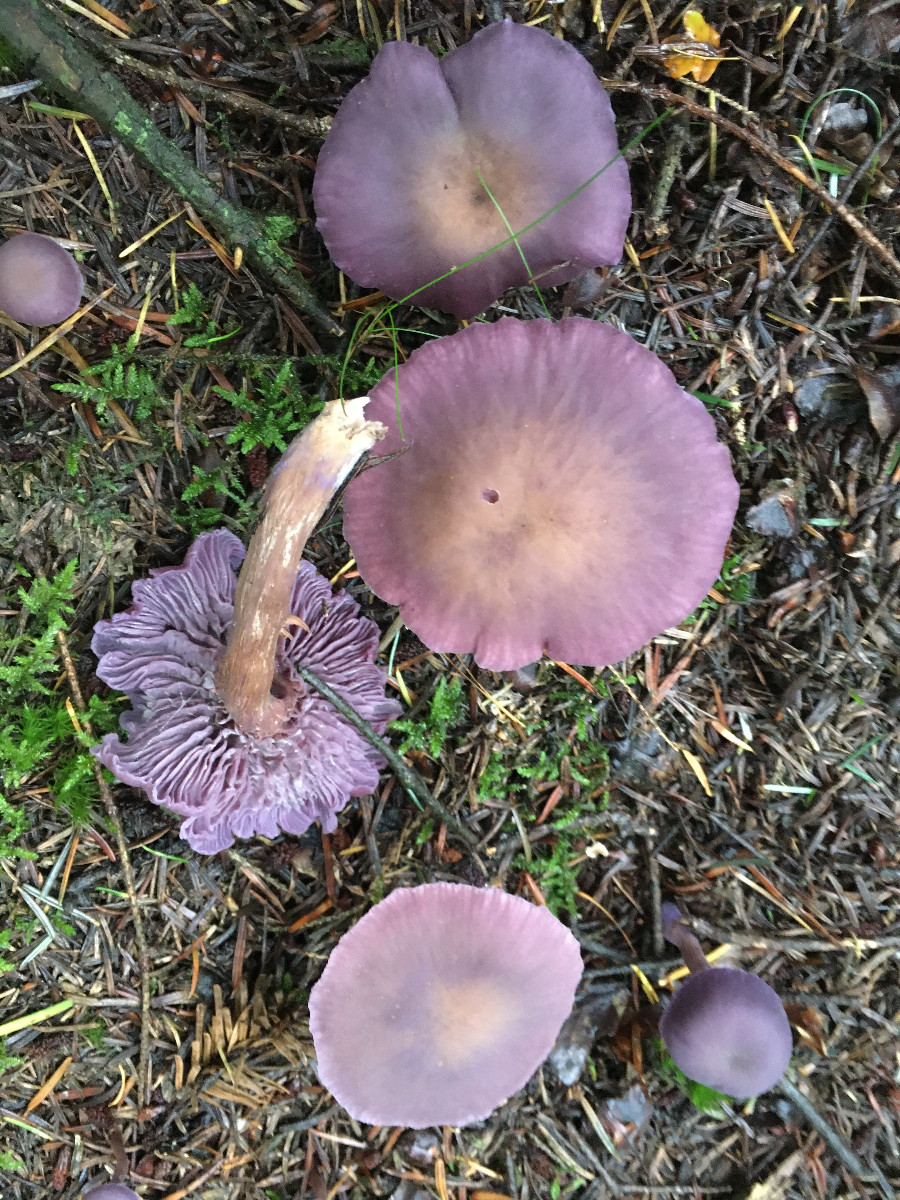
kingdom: Fungi
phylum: Basidiomycota
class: Agaricomycetes
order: Agaricales
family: Hydnangiaceae
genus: Laccaria
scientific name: Laccaria amethystina
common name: violet ametysthat
